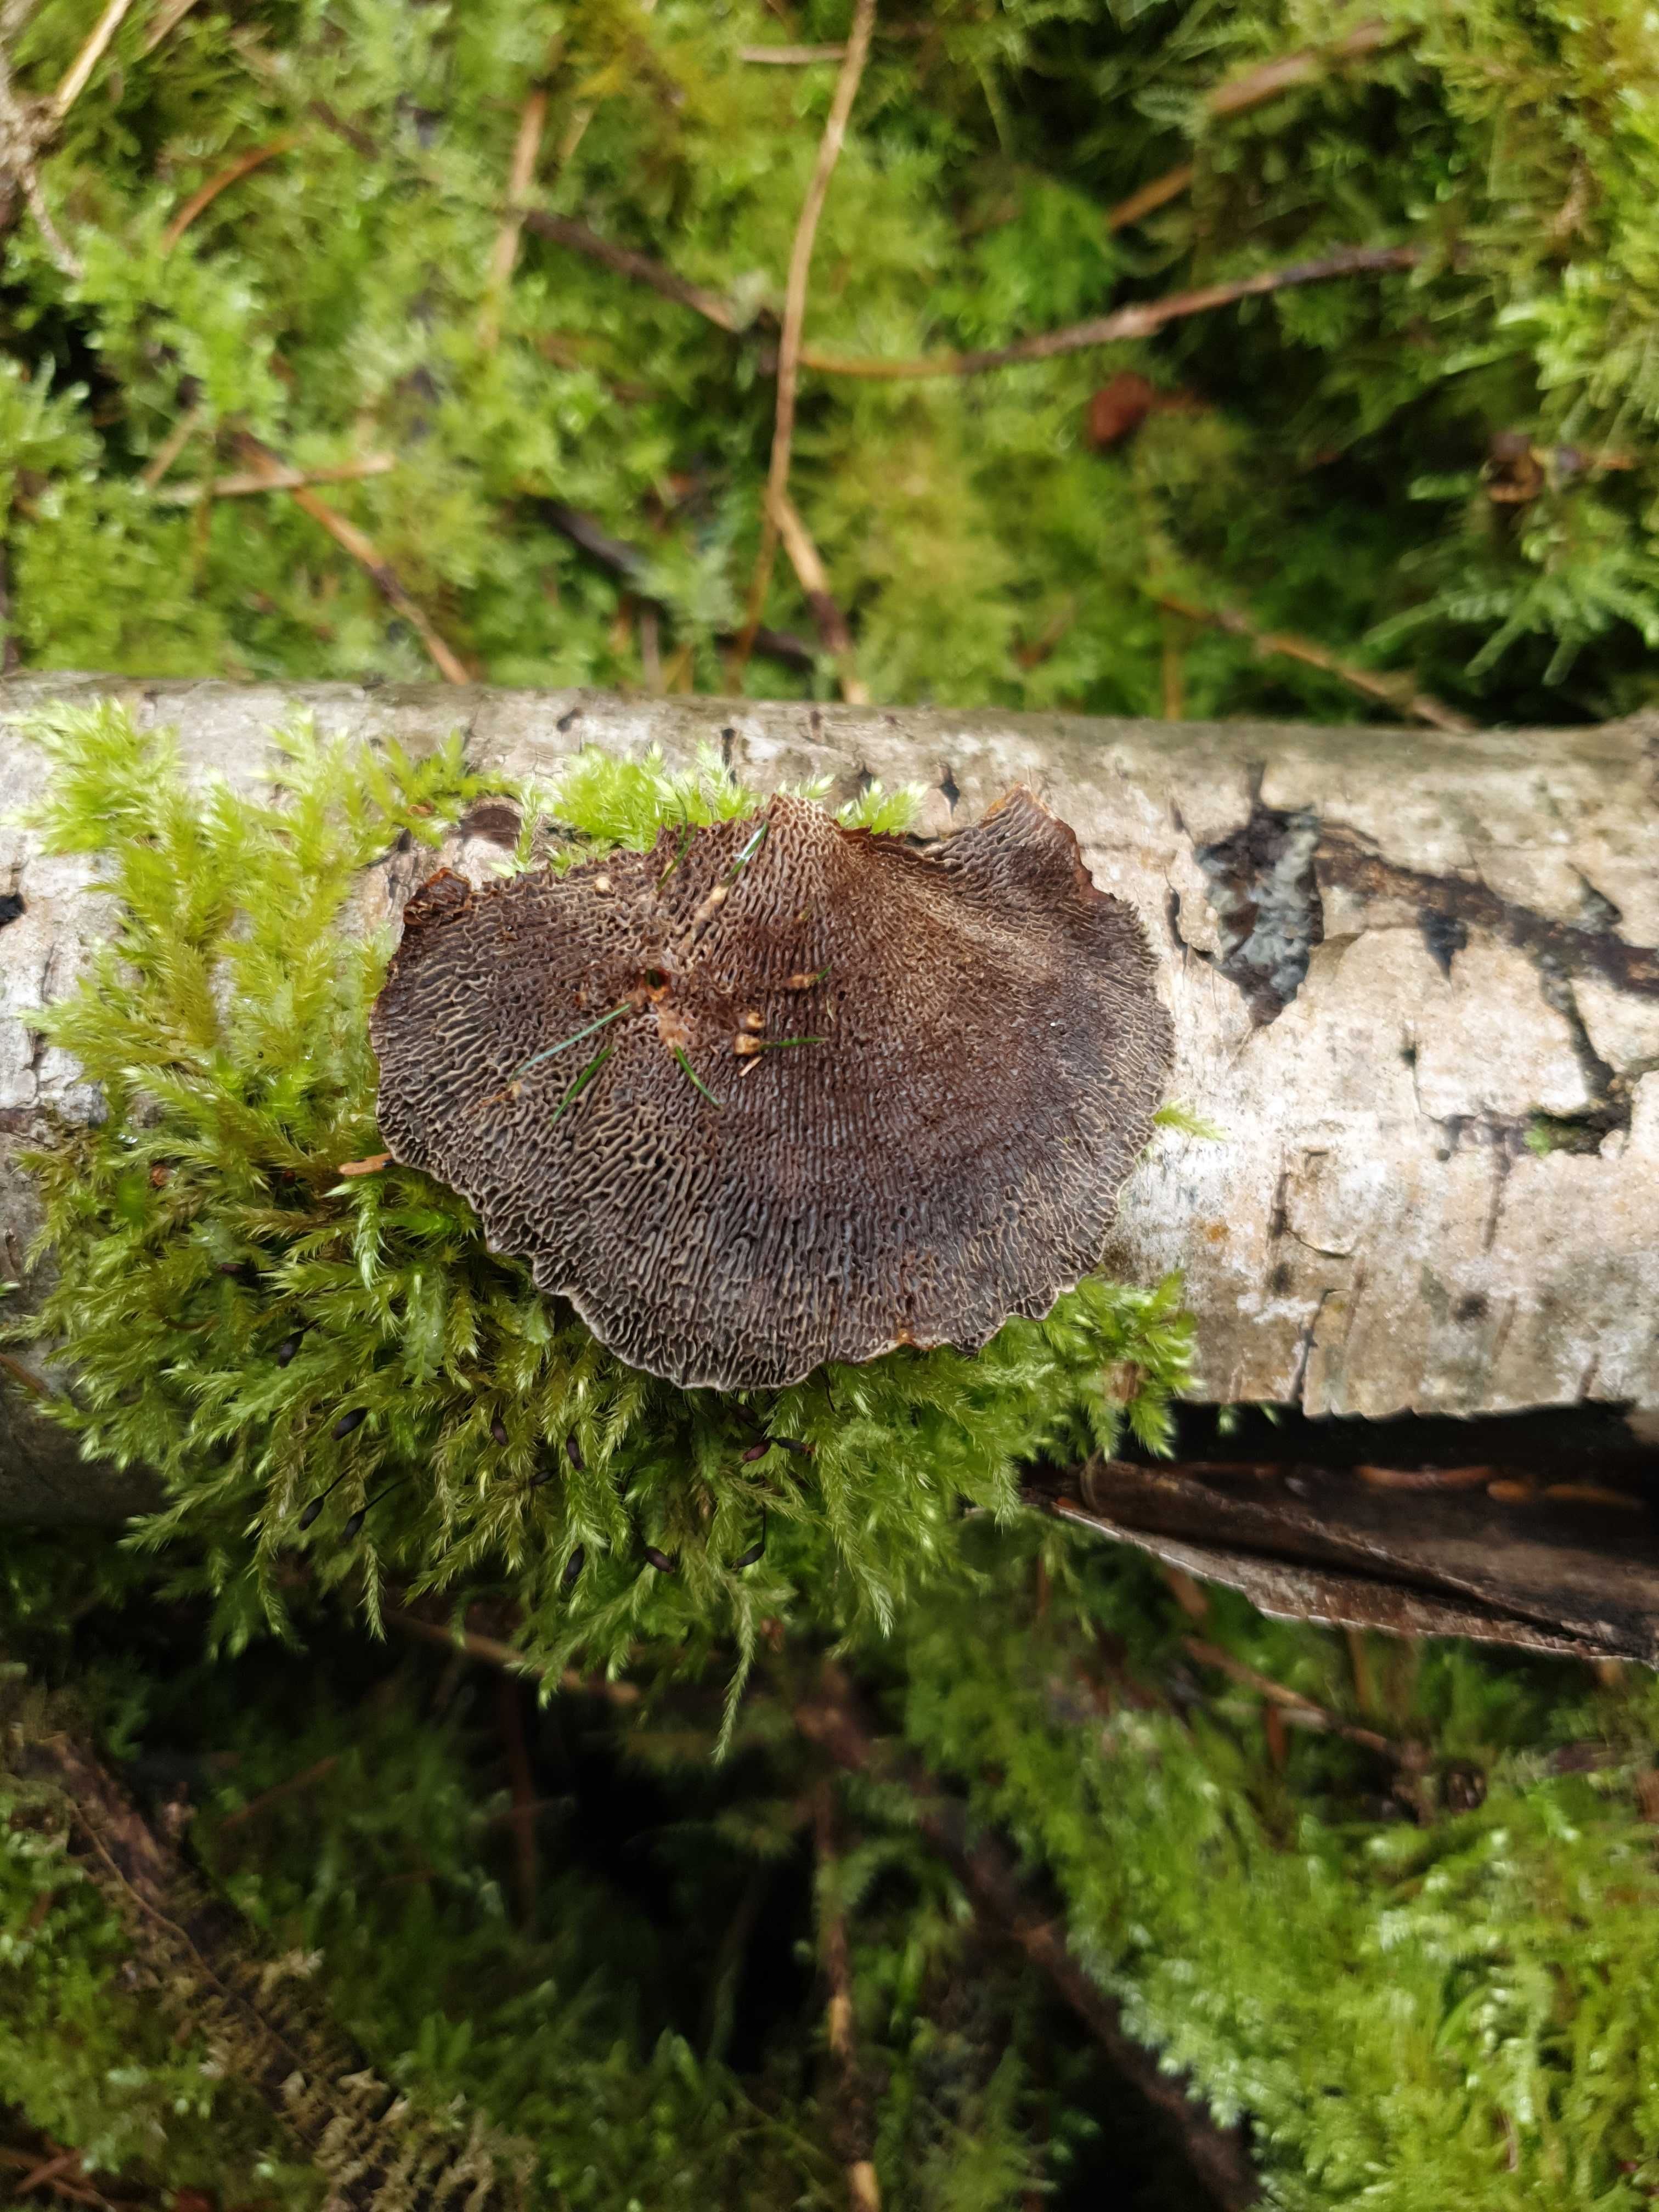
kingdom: Fungi
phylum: Basidiomycota
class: Agaricomycetes
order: Polyporales
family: Polyporaceae
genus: Daedaleopsis
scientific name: Daedaleopsis confragosa
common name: rødmende læderporesvamp
